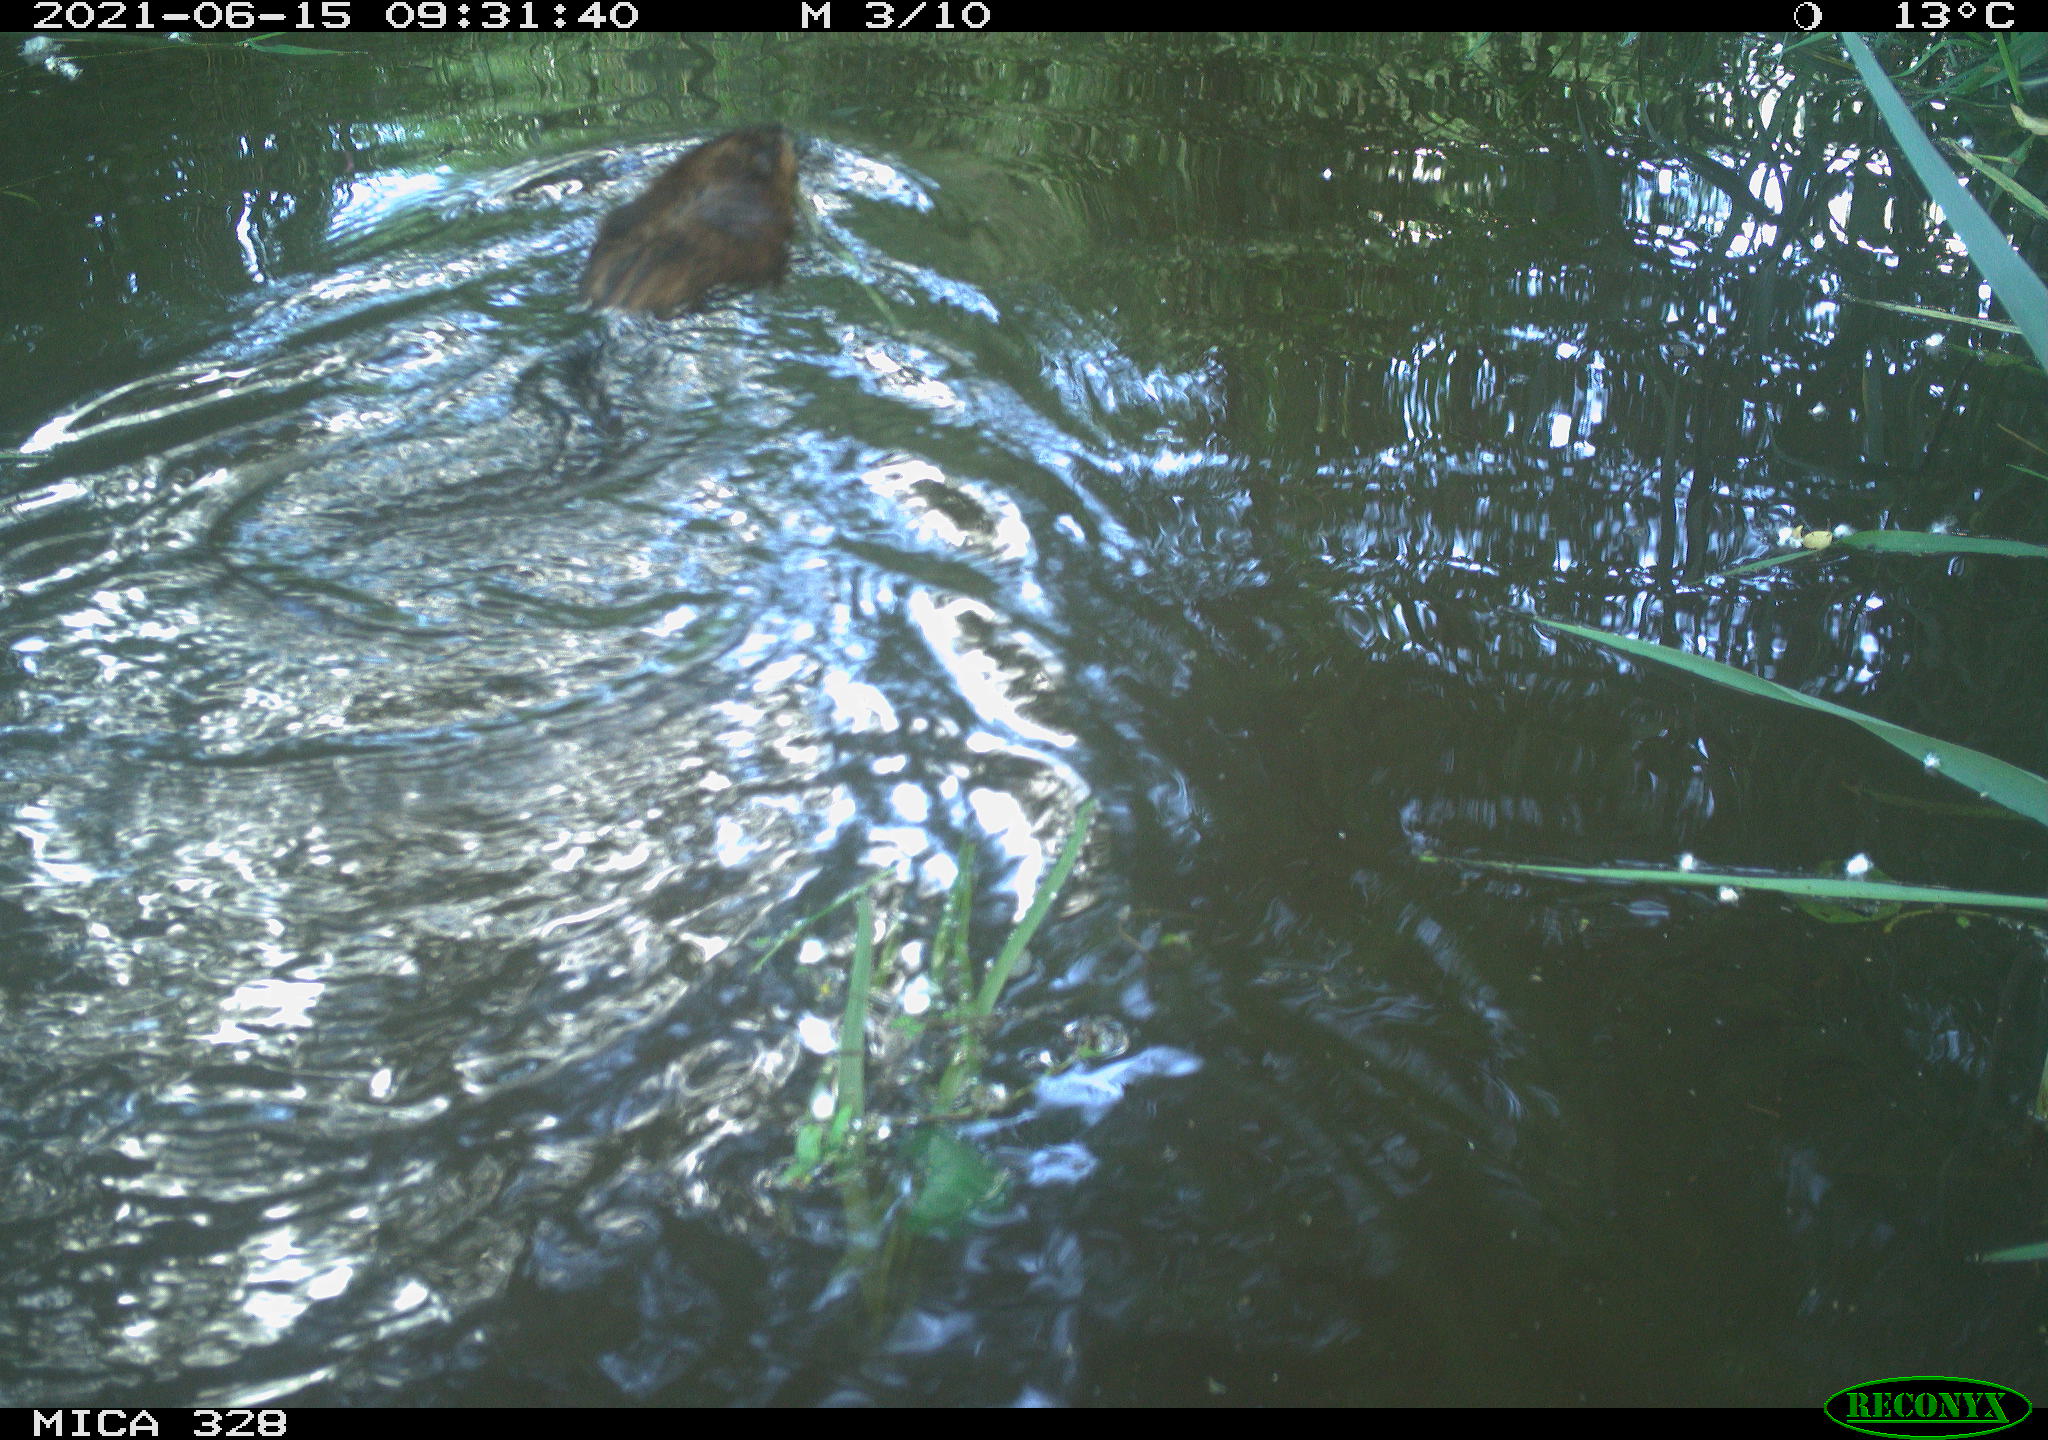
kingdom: Animalia
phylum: Chordata
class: Mammalia
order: Rodentia
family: Cricetidae
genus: Ondatra
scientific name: Ondatra zibethicus
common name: Muskrat
